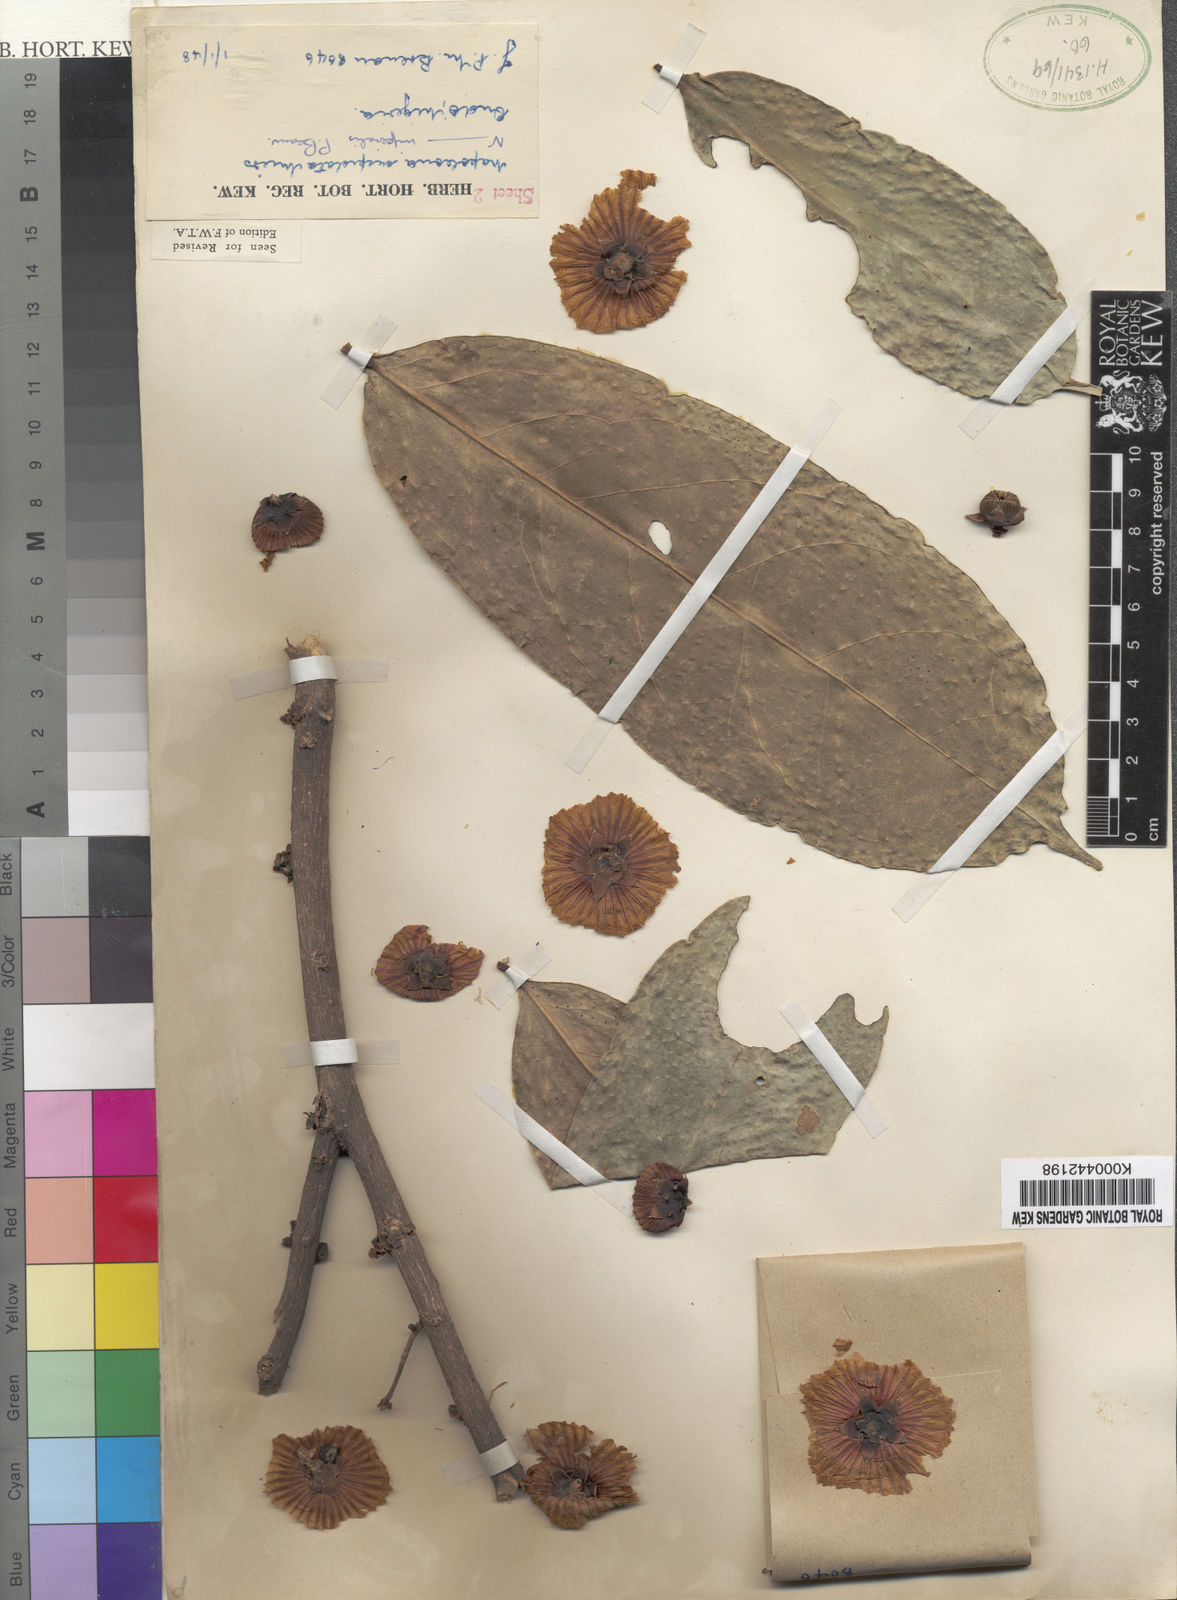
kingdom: Plantae
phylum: Tracheophyta
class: Magnoliopsida
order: Ericales
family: Lecythidaceae
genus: Napoleonaea
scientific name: Napoleonaea imperialis
